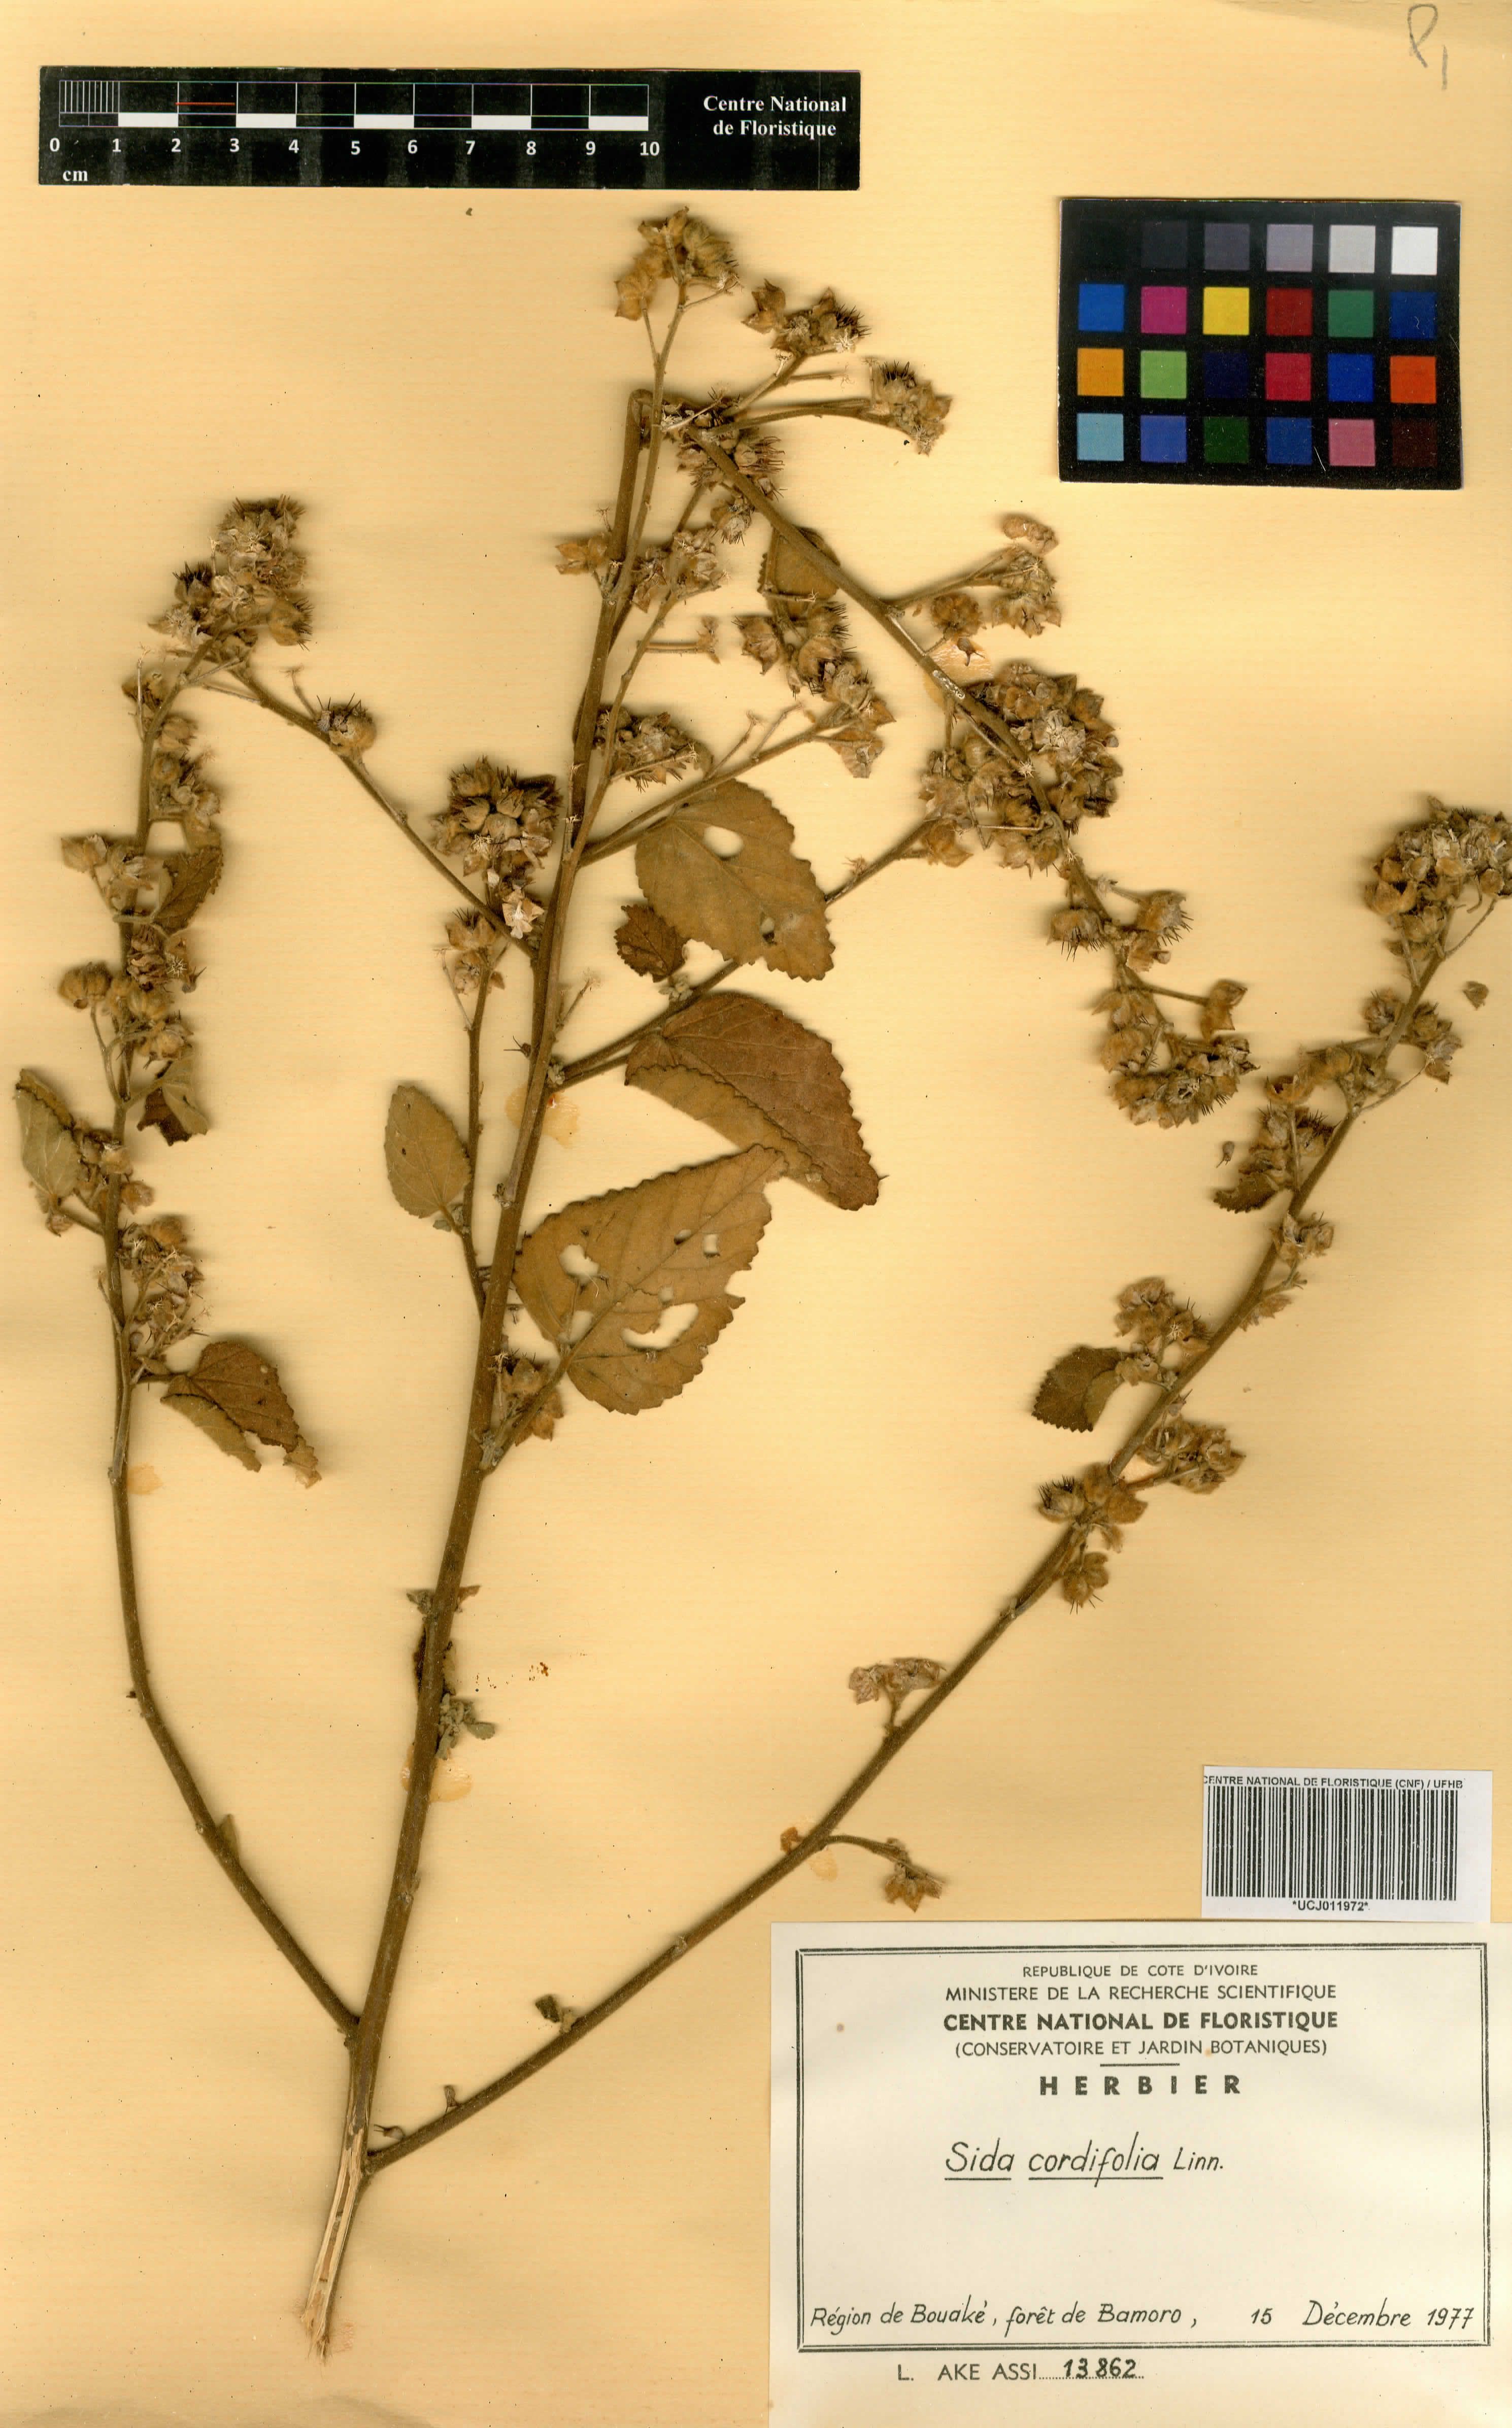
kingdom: Plantae
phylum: Tracheophyta
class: Magnoliopsida
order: Malvales
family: Malvaceae
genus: Sida
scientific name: Sida cordifolia
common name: Ilima
